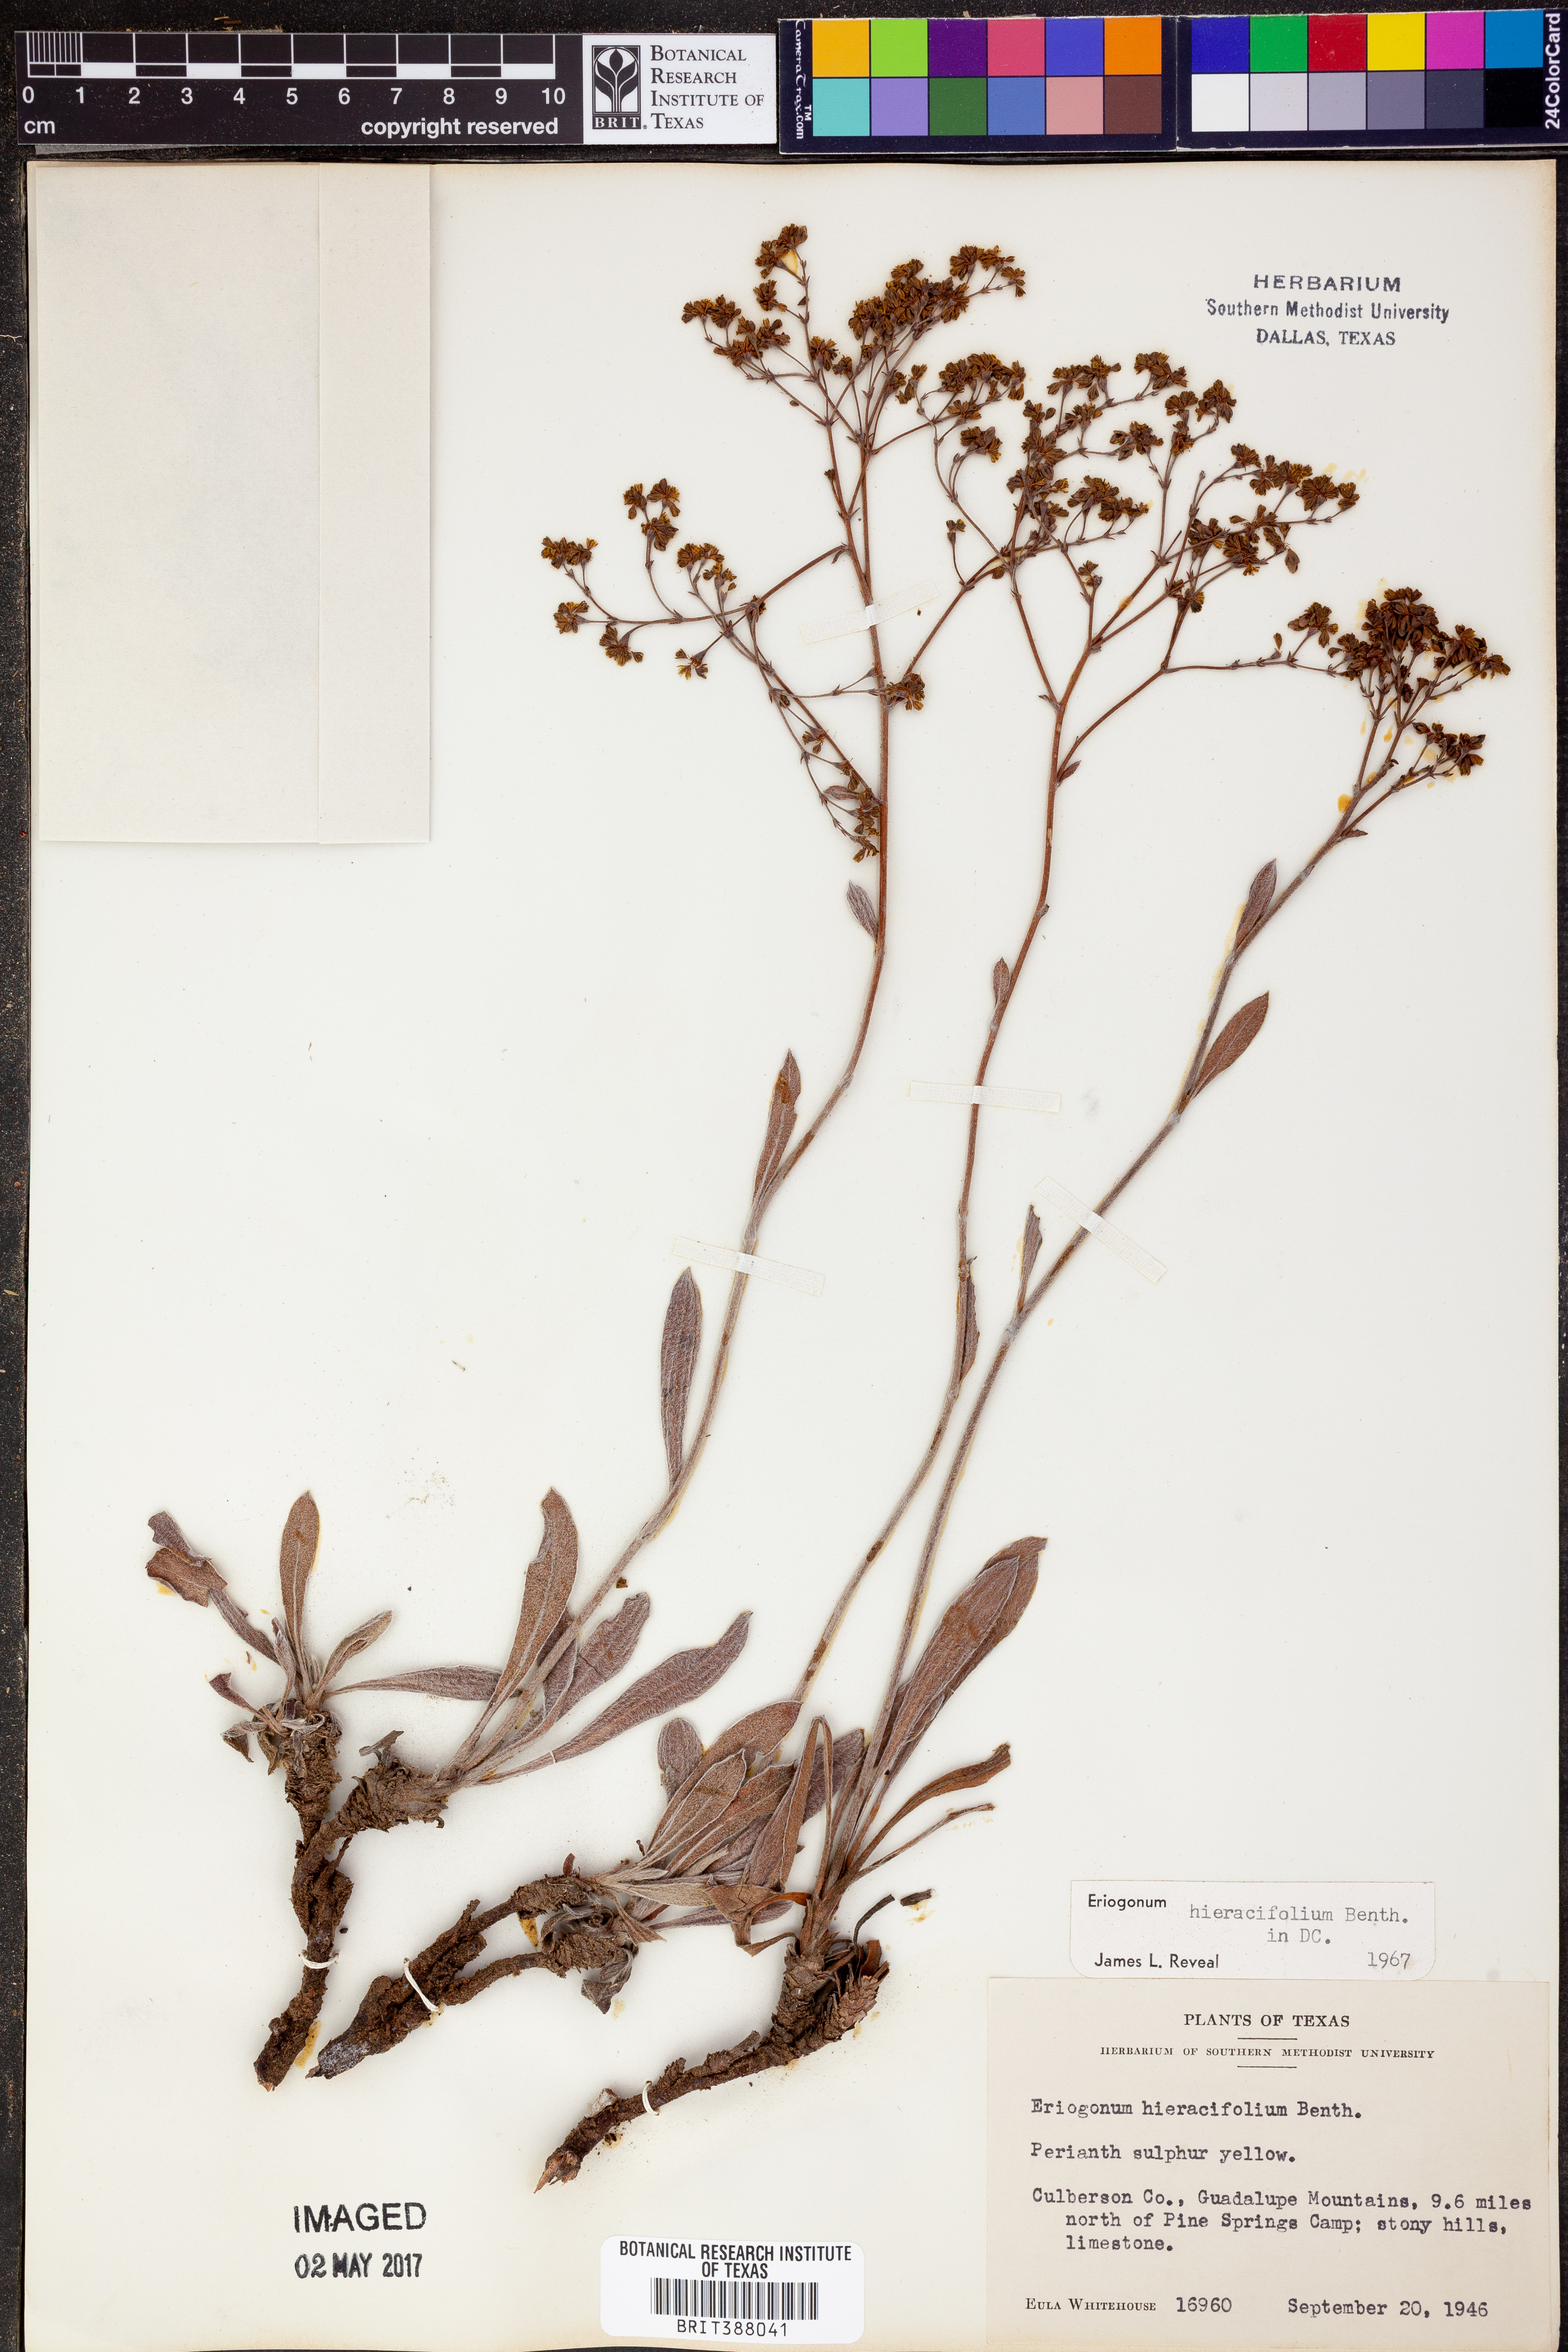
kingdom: Plantae
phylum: Tracheophyta
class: Magnoliopsida
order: Caryophyllales
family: Polygonaceae
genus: Eriogonum
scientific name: Eriogonum hieraciifolium
